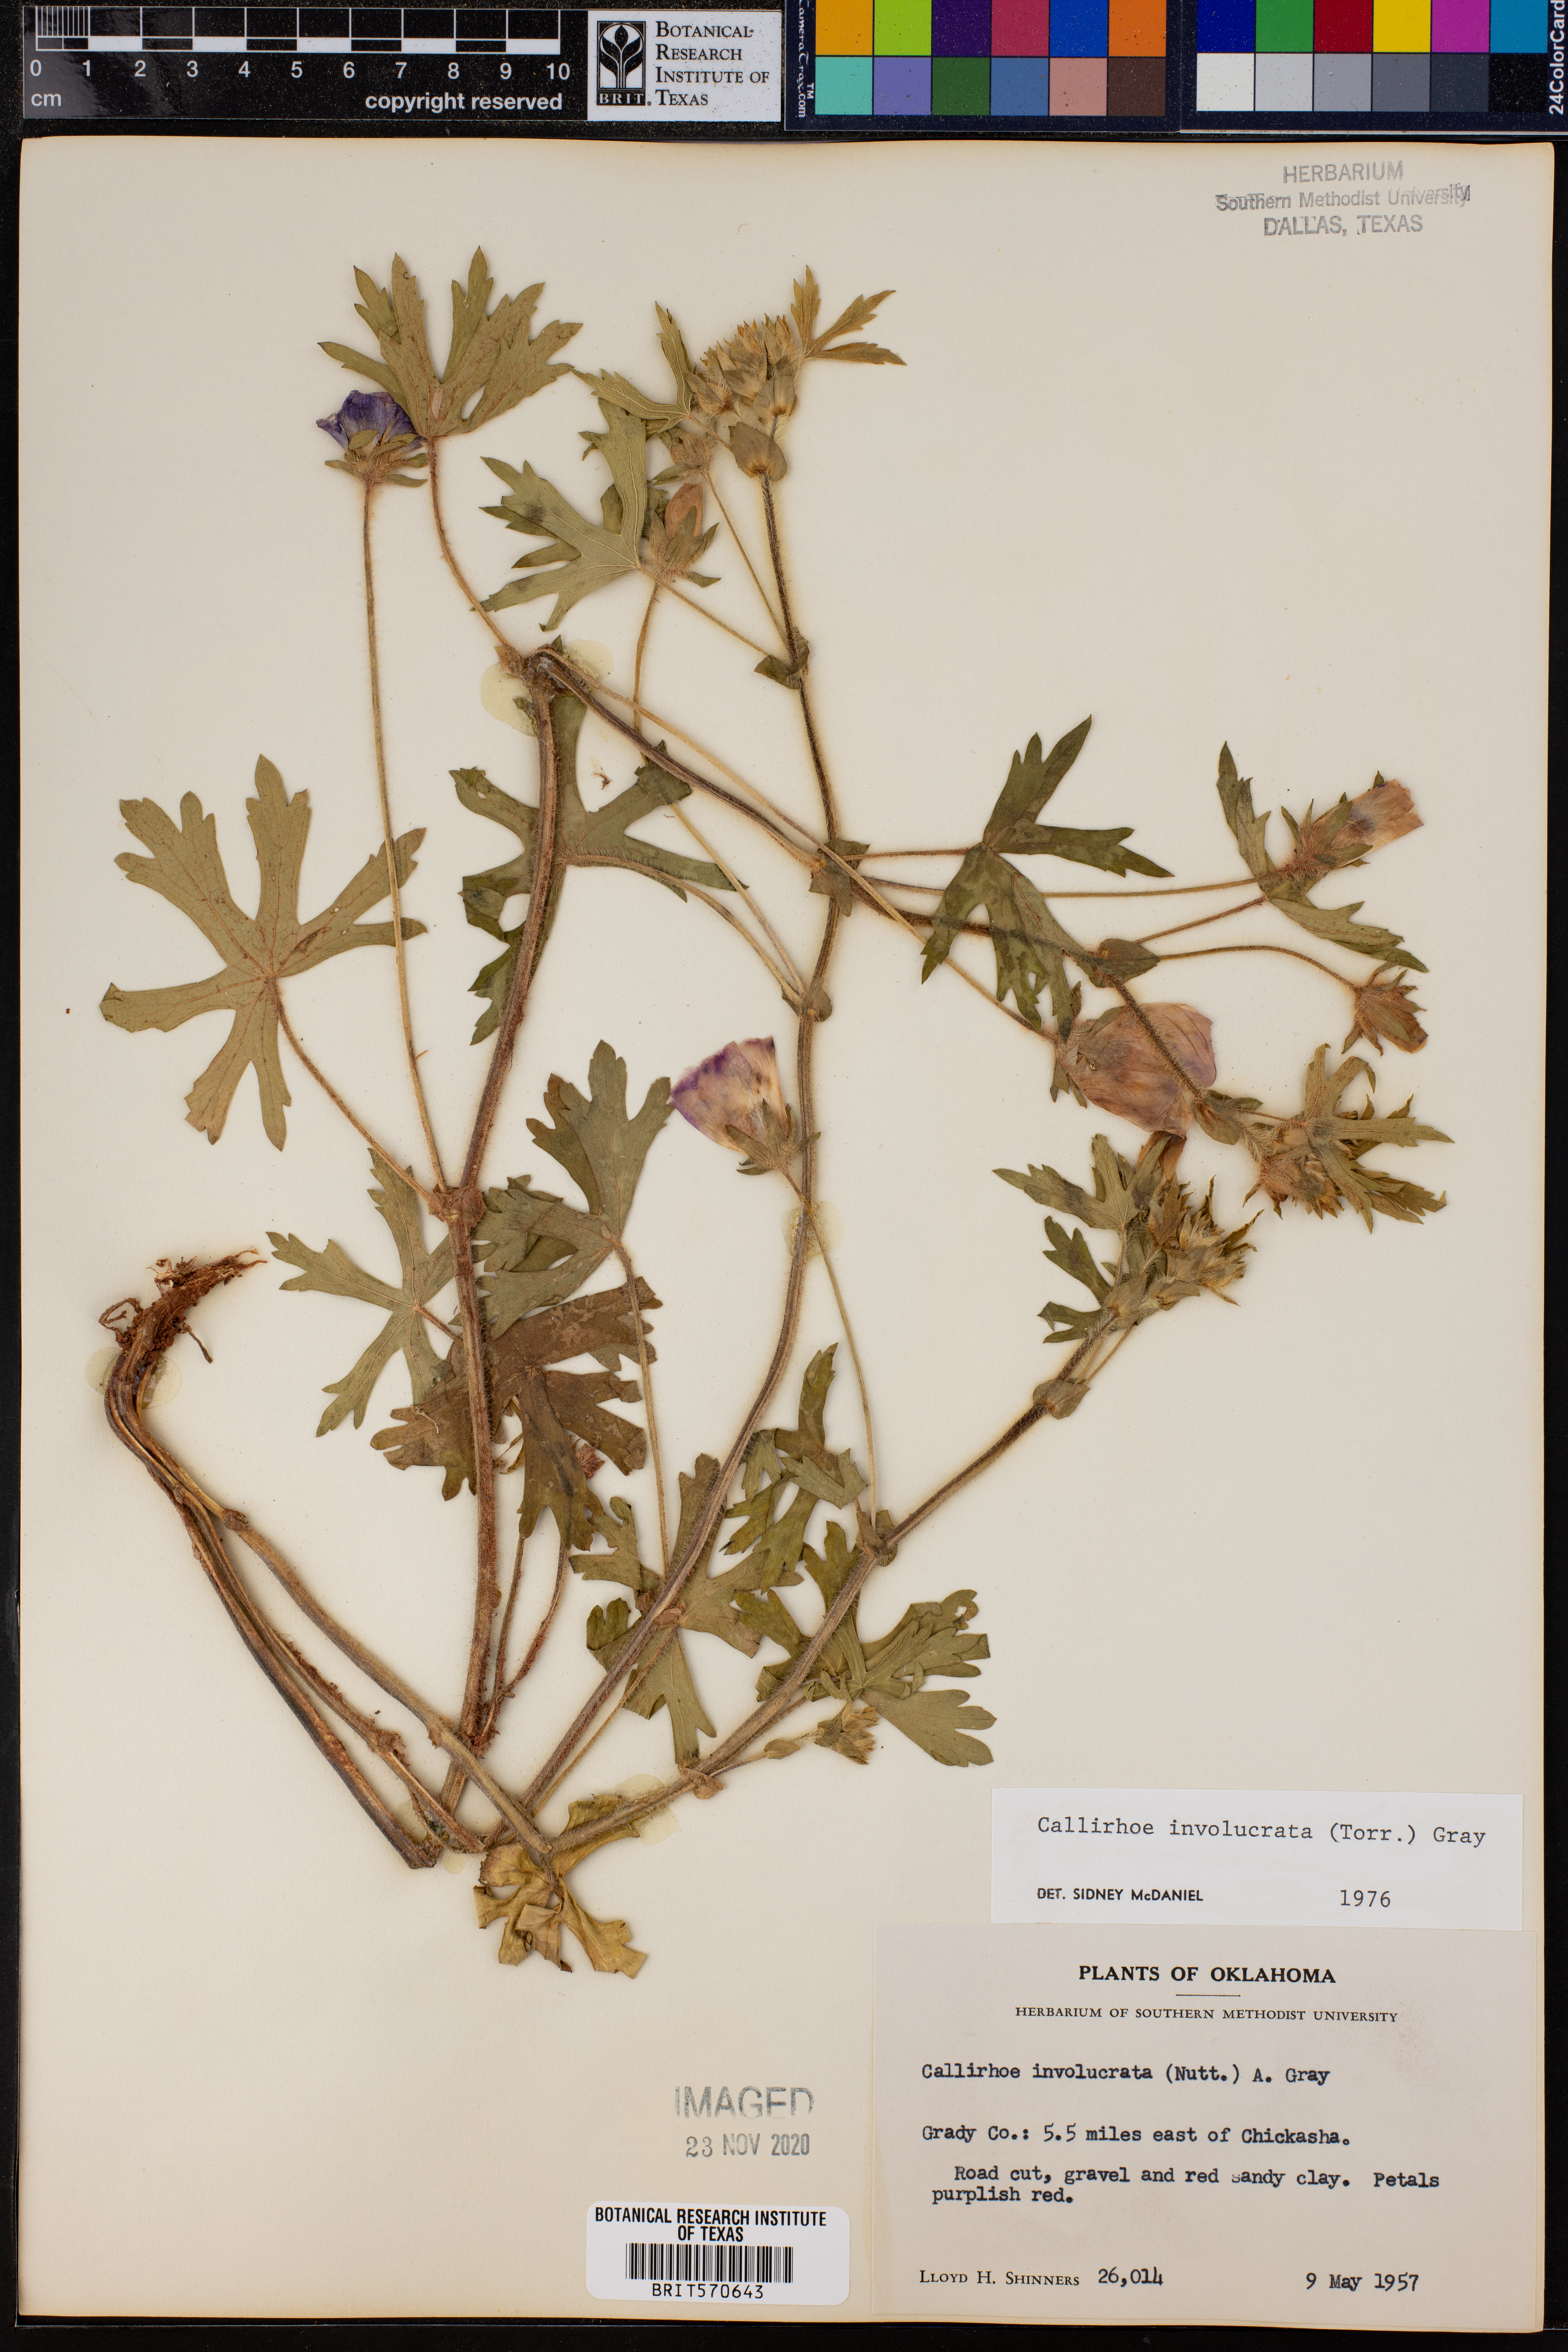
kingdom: Plantae
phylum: Tracheophyta
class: Magnoliopsida
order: Malvales
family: Malvaceae
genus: Callirhoe
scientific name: Callirhoe involucrata
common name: Purple poppy-mallow
